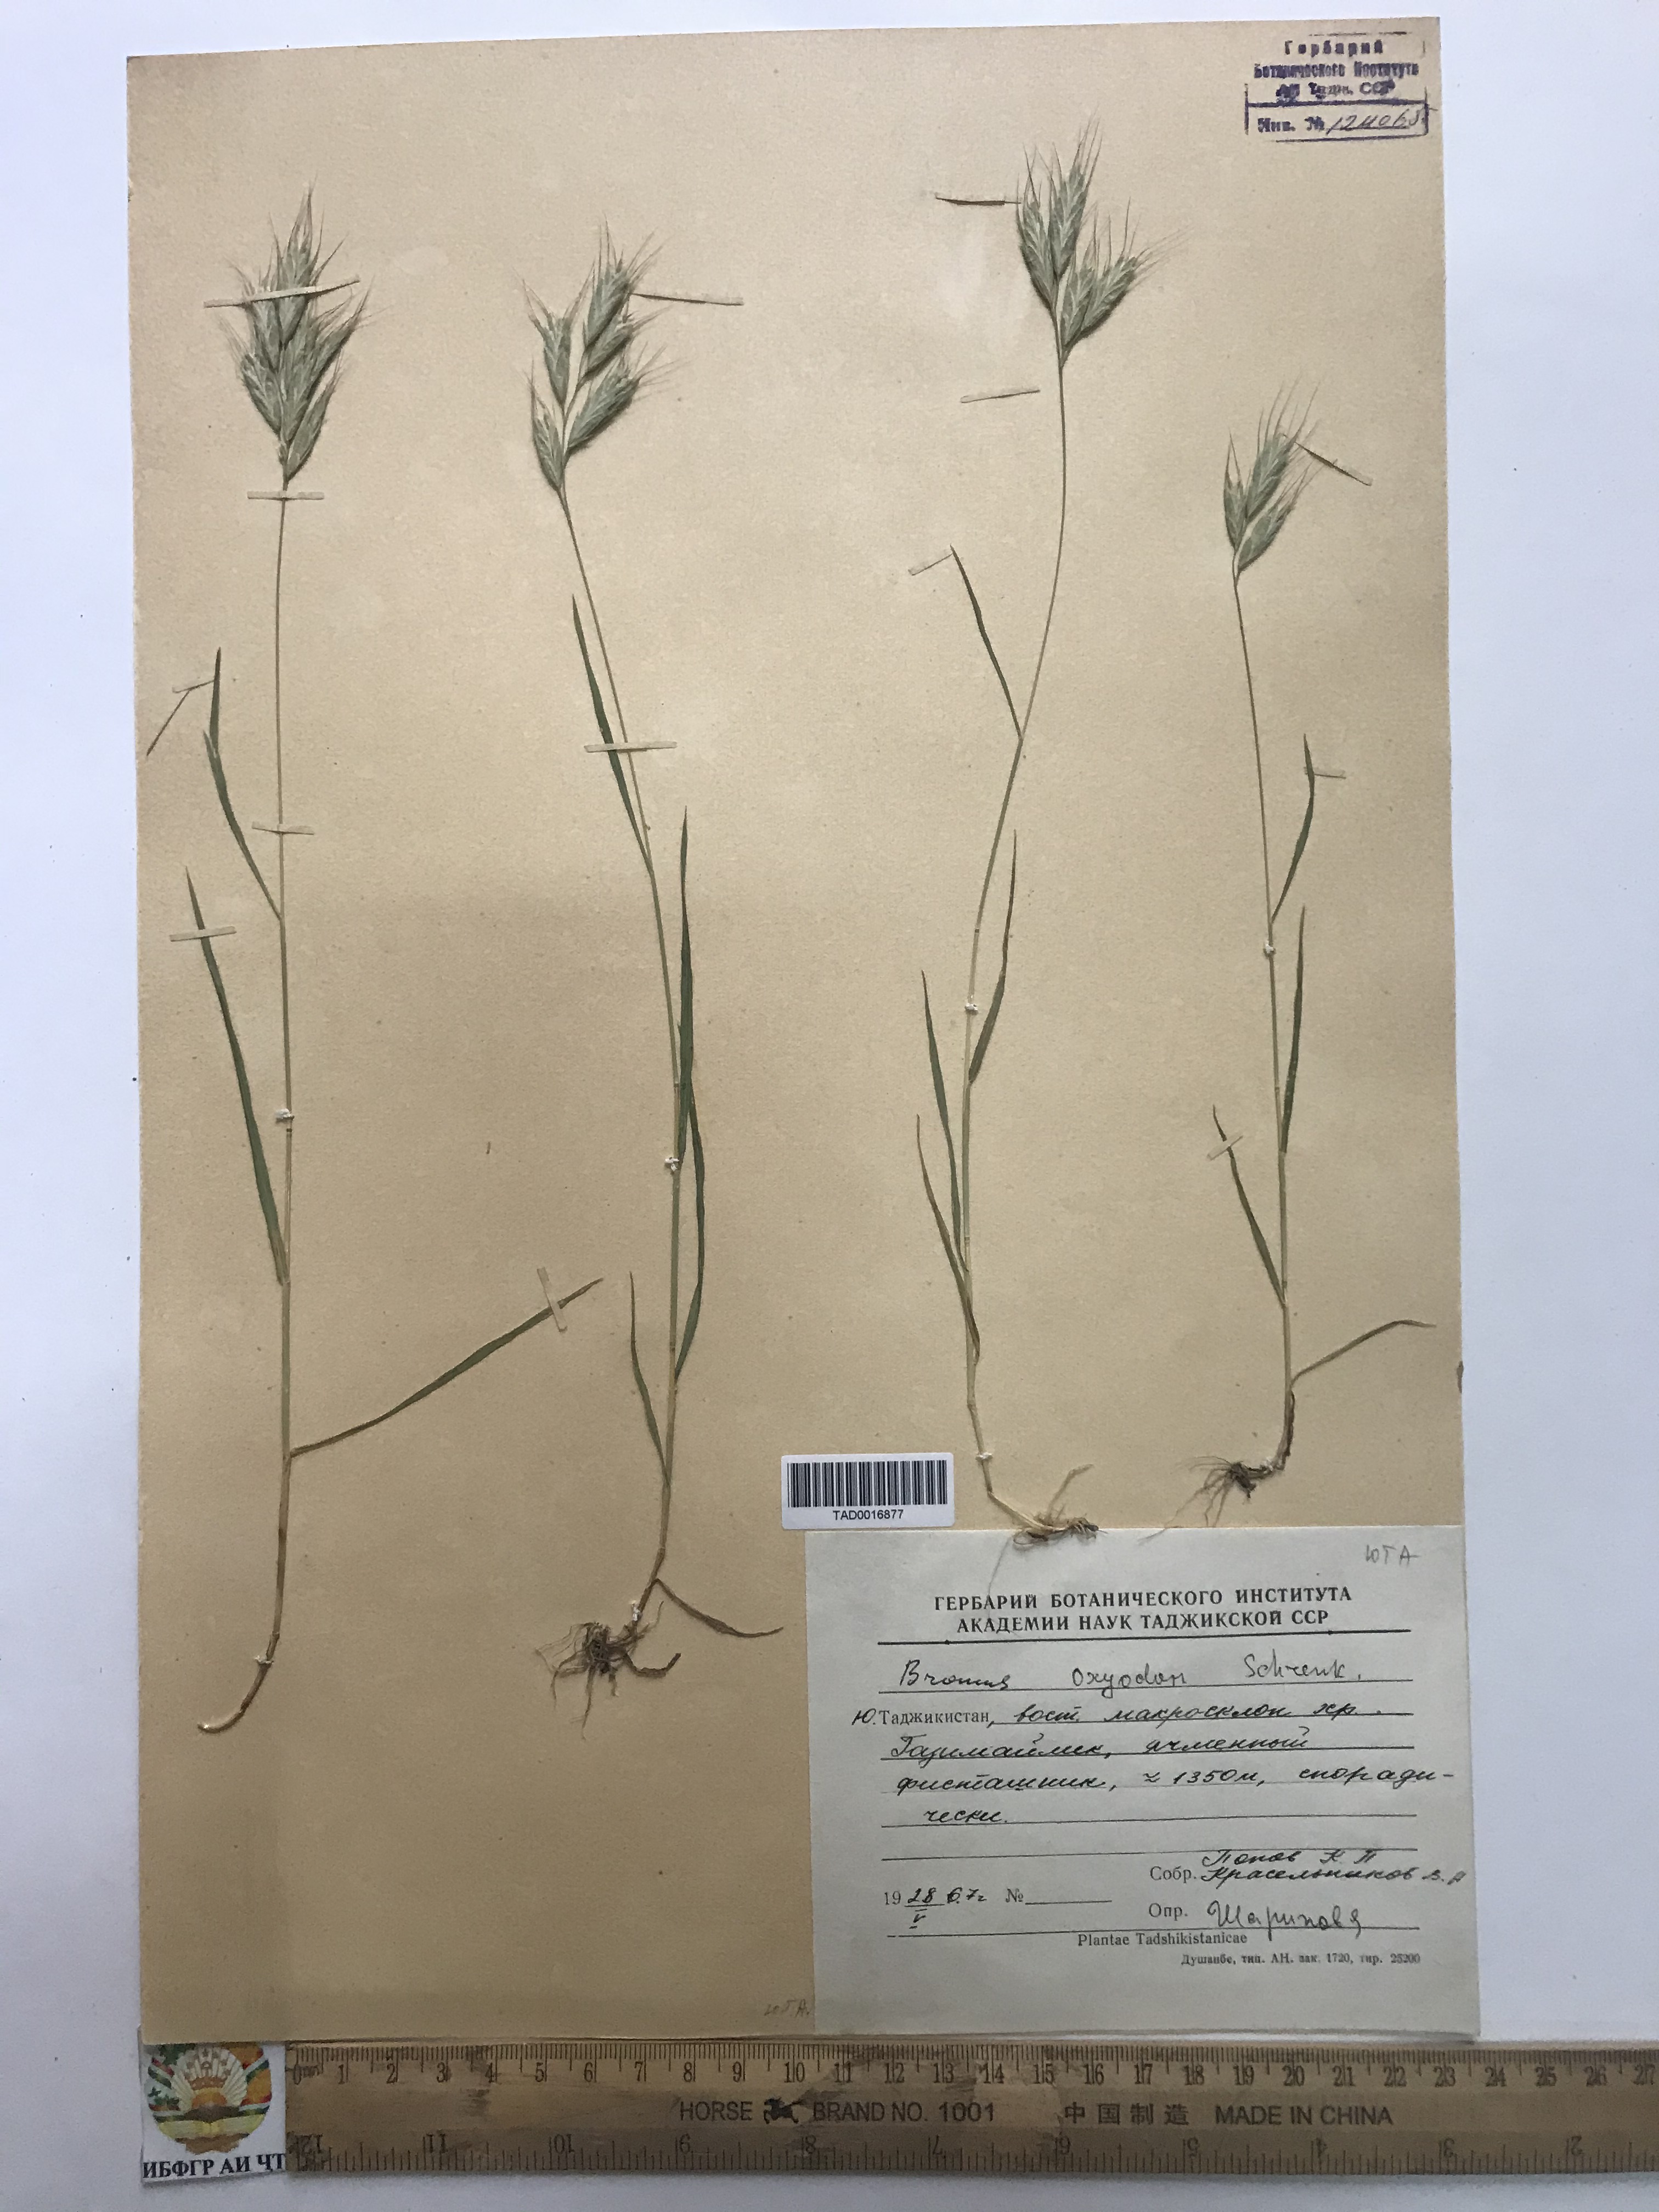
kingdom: Plantae
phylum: Tracheophyta
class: Liliopsida
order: Poales
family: Poaceae
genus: Bromus
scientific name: Bromus oxyodon
